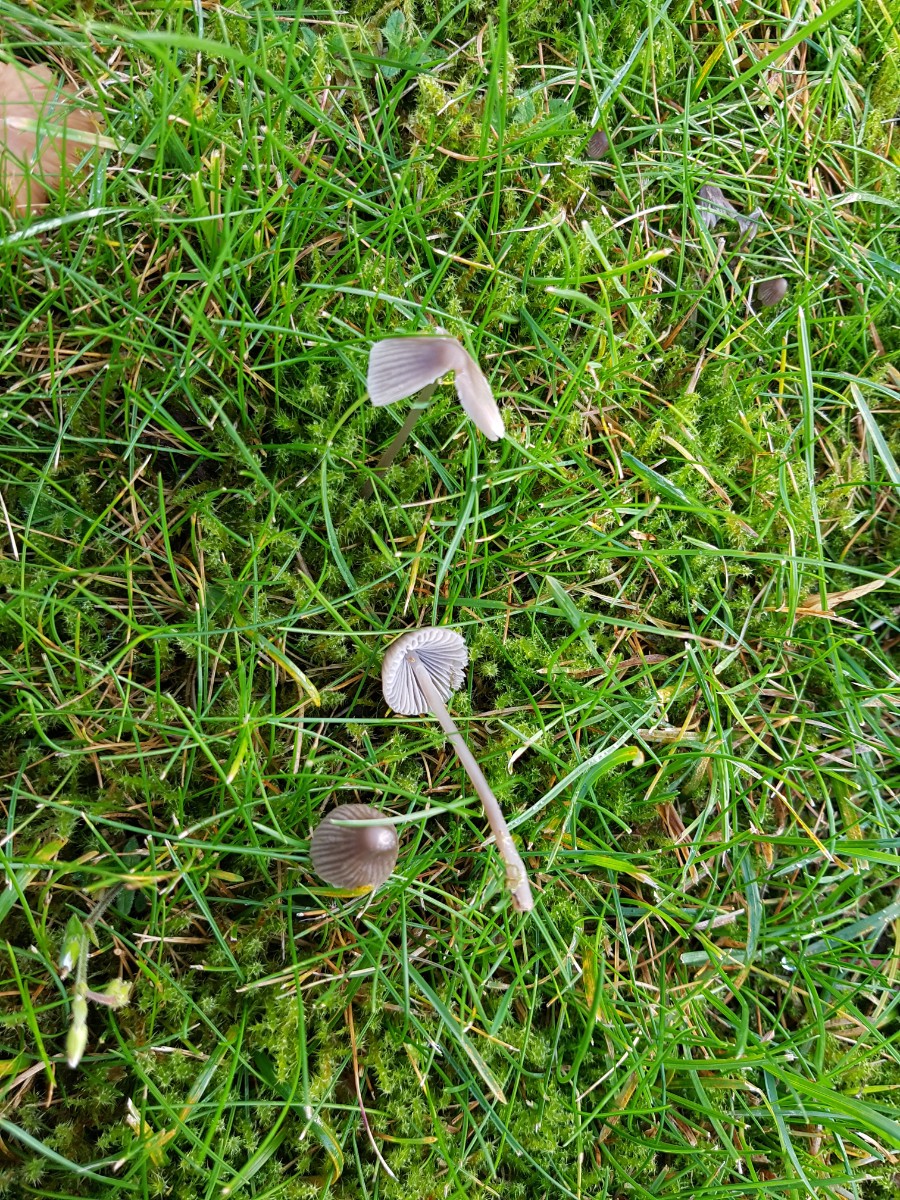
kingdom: Fungi
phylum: Basidiomycota
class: Agaricomycetes
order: Agaricales
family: Mycenaceae
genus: Mycena
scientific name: Mycena
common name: huesvamp
